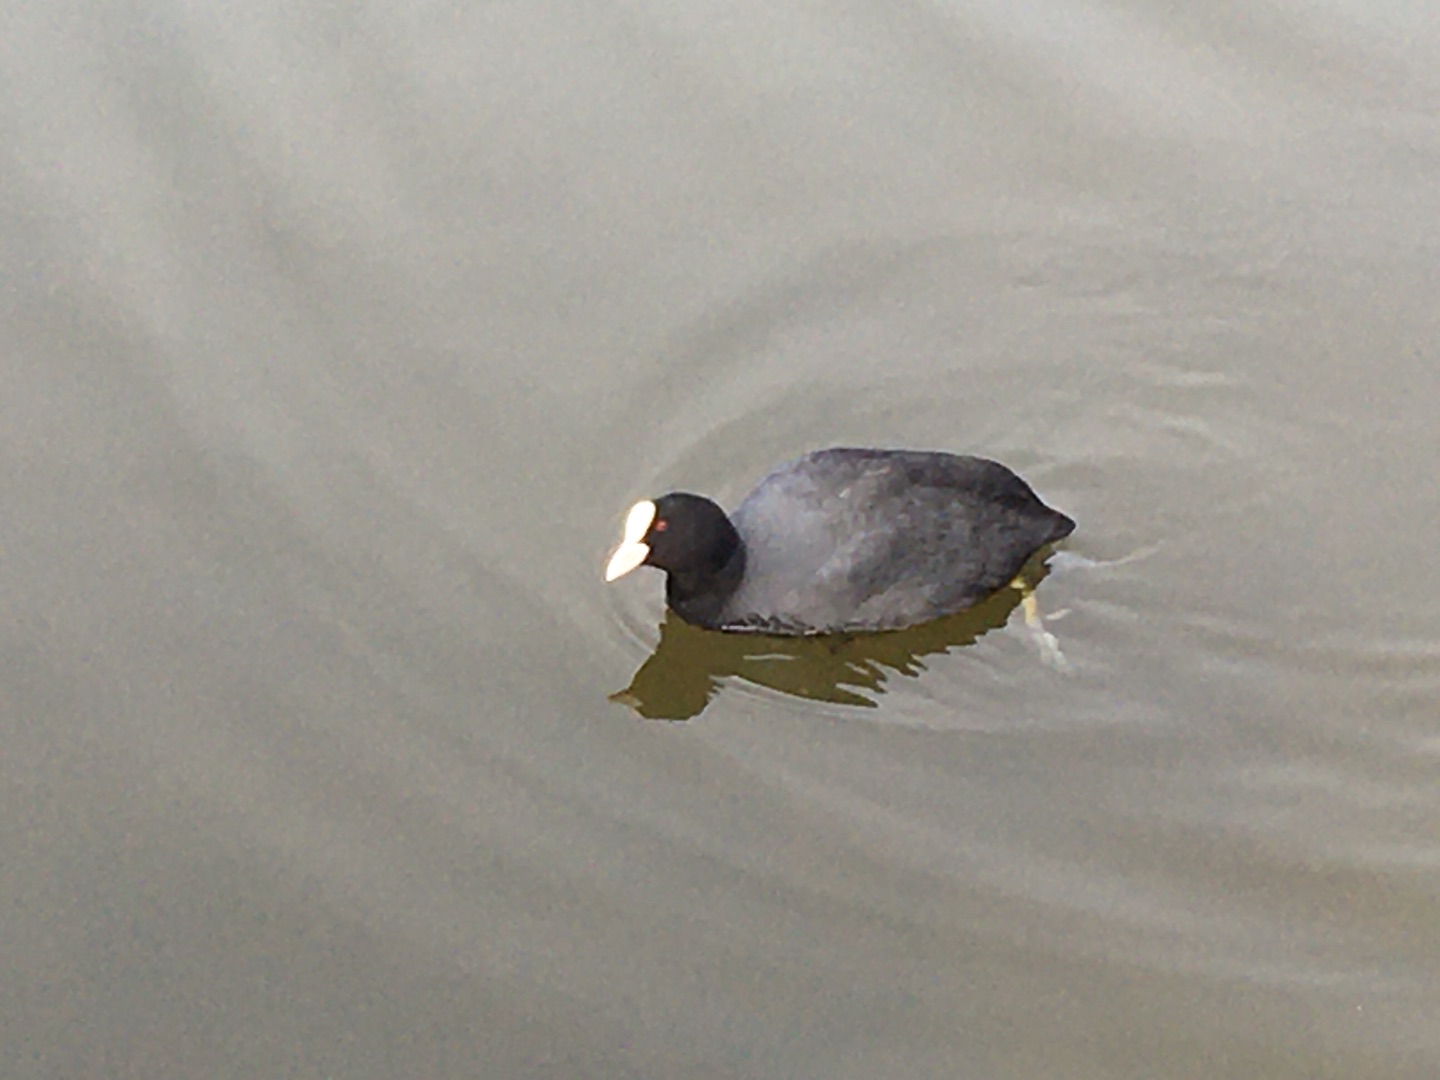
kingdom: Animalia
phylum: Chordata
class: Aves
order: Gruiformes
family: Rallidae
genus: Fulica
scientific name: Fulica atra
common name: Blishøne
